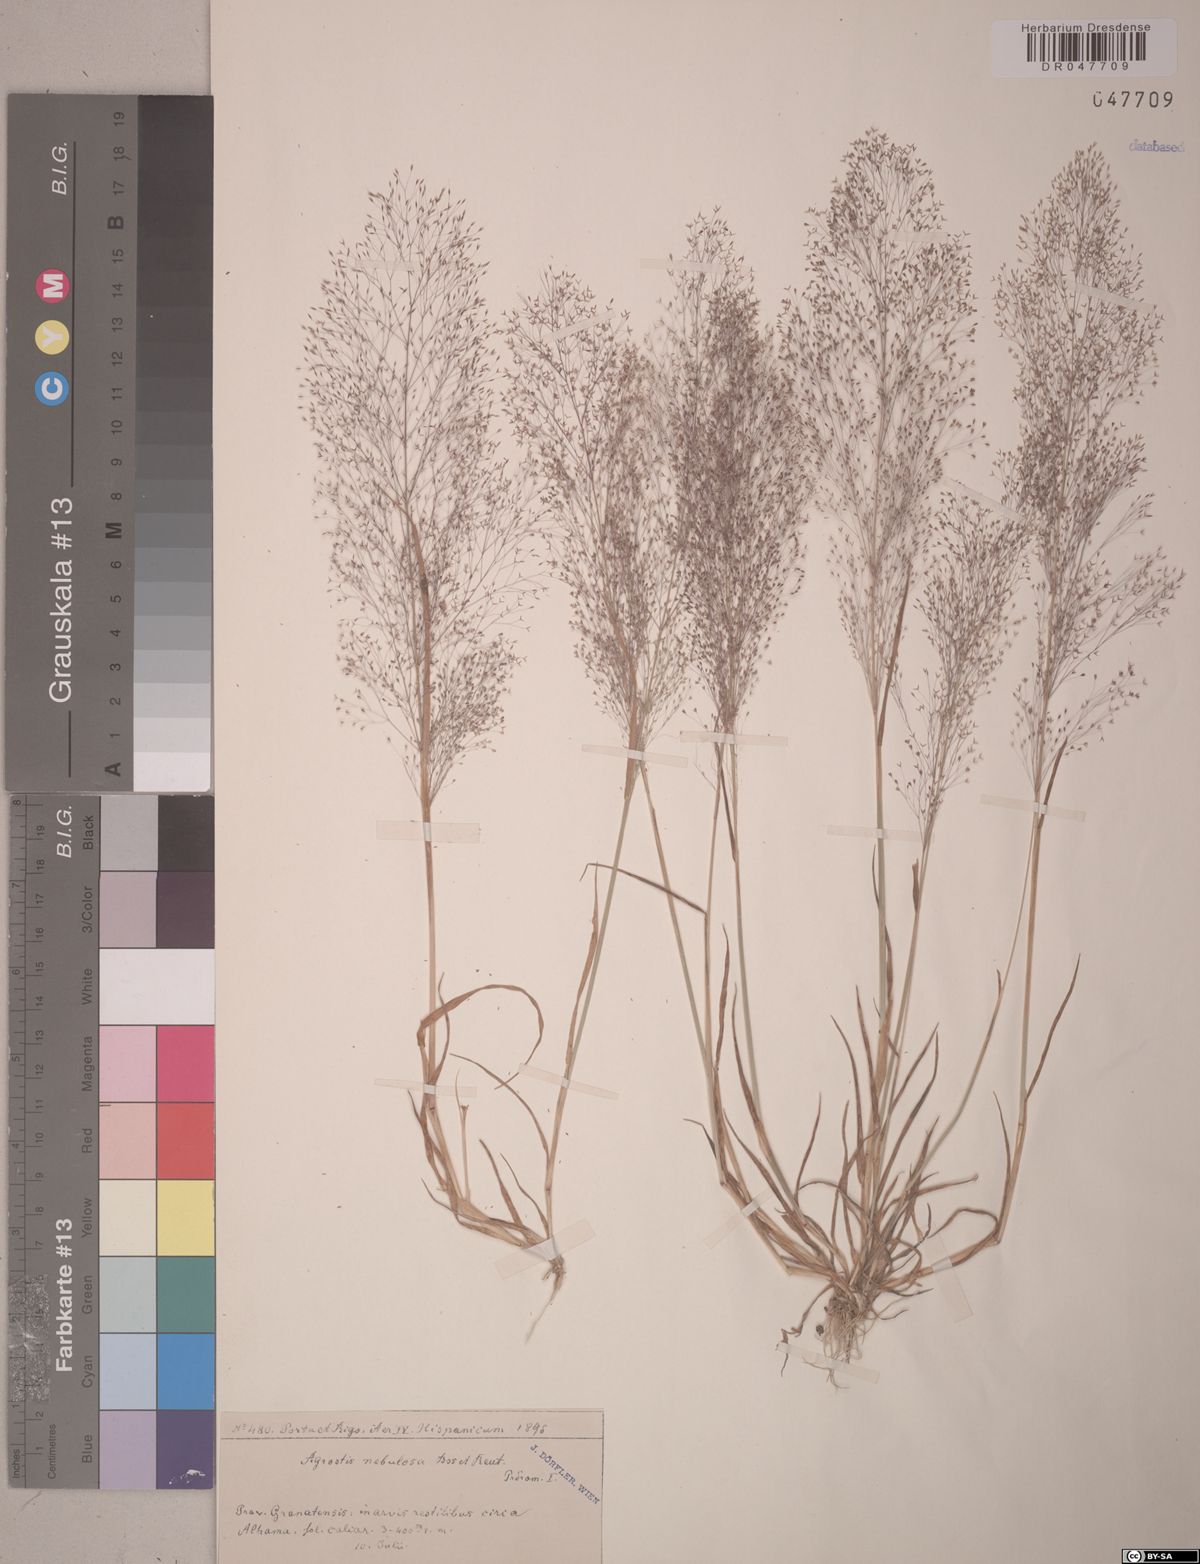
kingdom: Plantae
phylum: Tracheophyta
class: Liliopsida
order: Poales
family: Poaceae
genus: Agrostis
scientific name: Agrostis nebulosa
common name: Cloud grass
